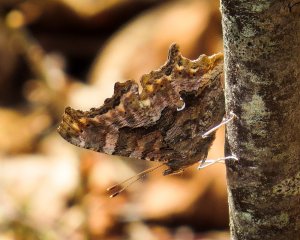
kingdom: Animalia
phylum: Arthropoda
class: Insecta
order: Lepidoptera
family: Nymphalidae
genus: Polygonia
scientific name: Polygonia comma
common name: Eastern Comma
